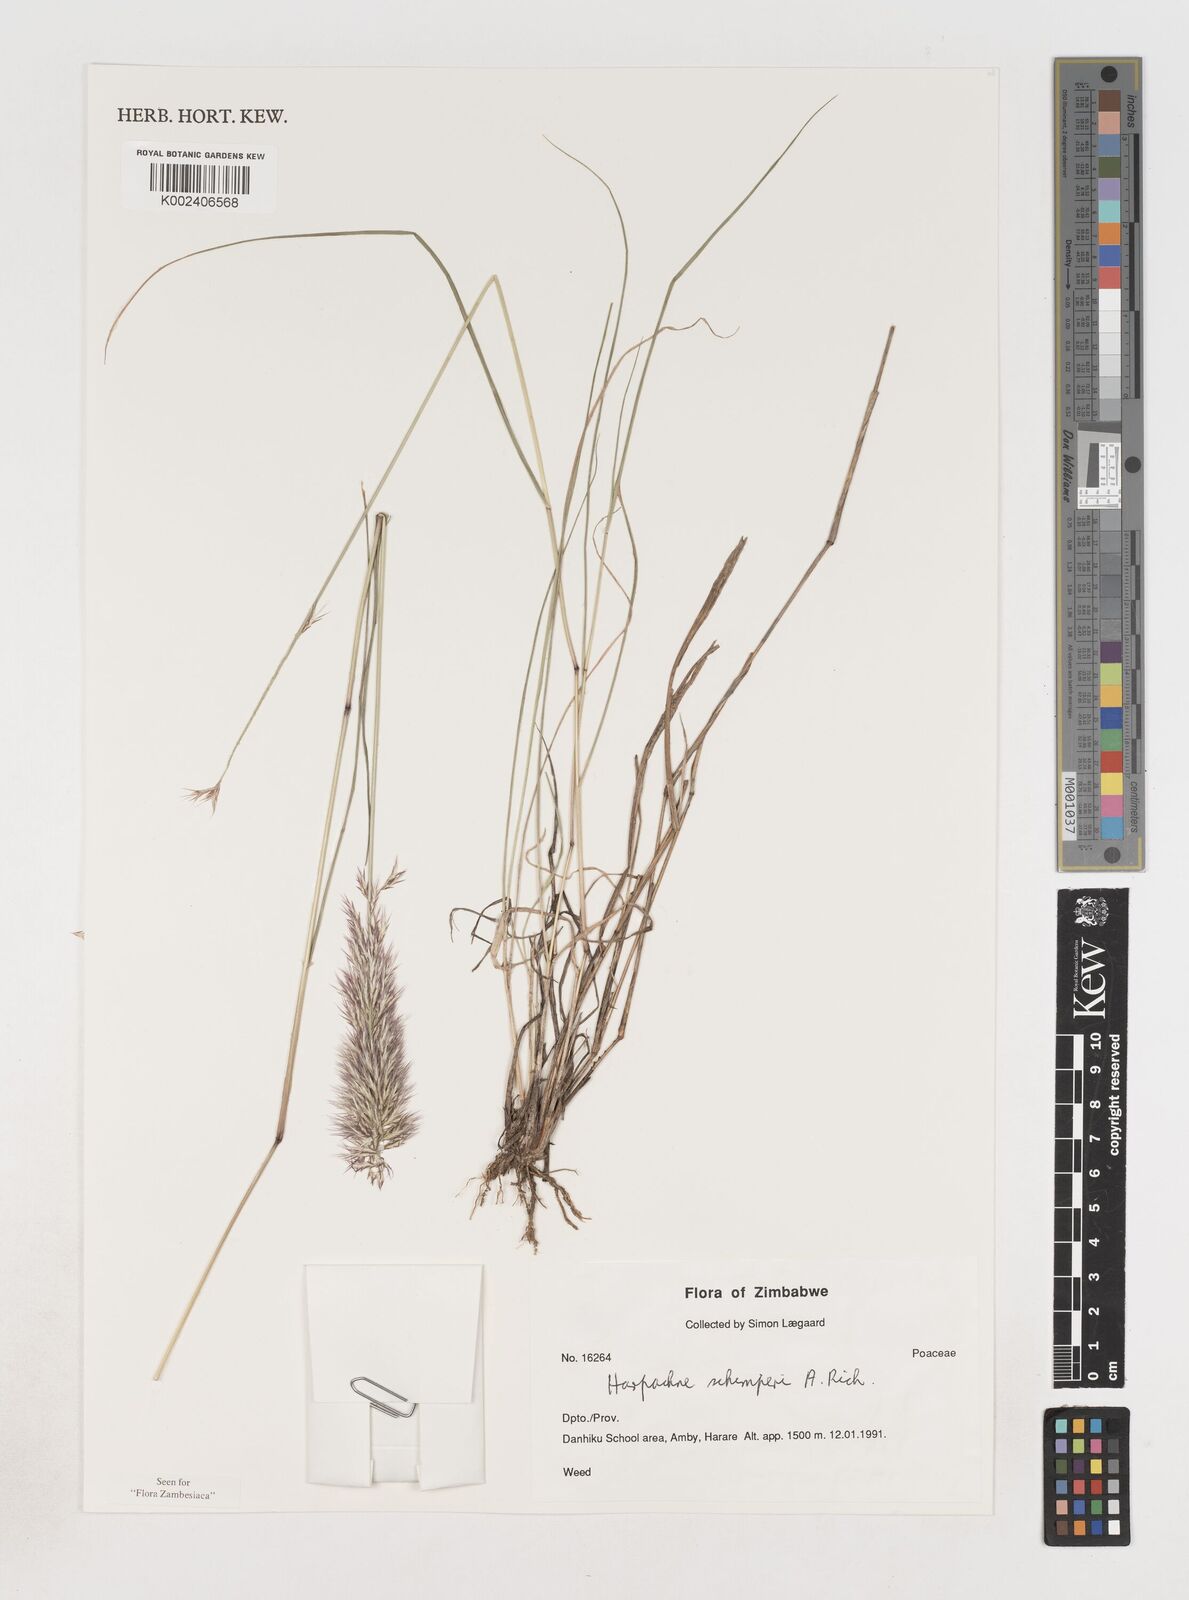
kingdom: Plantae
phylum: Tracheophyta
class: Liliopsida
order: Poales
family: Poaceae
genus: Harpachne
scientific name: Harpachne schimperi
